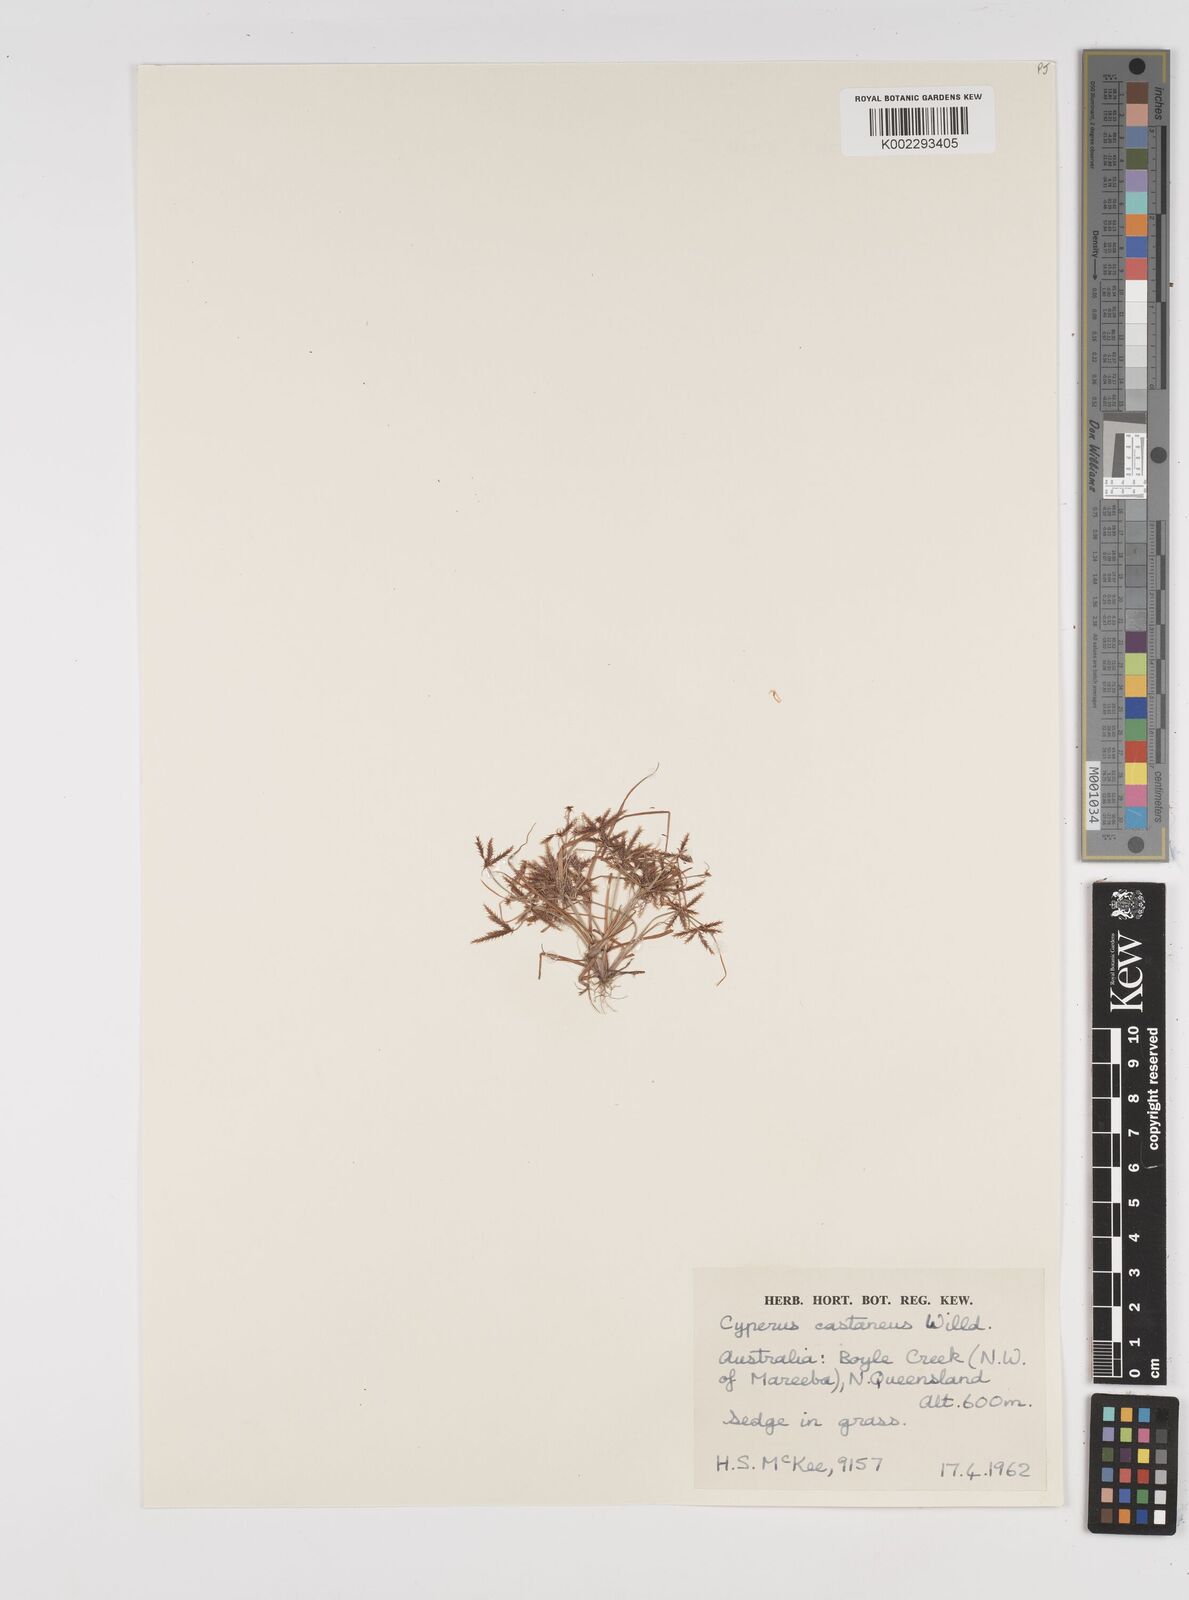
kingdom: Plantae
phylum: Tracheophyta
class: Liliopsida
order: Poales
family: Cyperaceae
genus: Cyperus
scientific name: Cyperus castaneus
